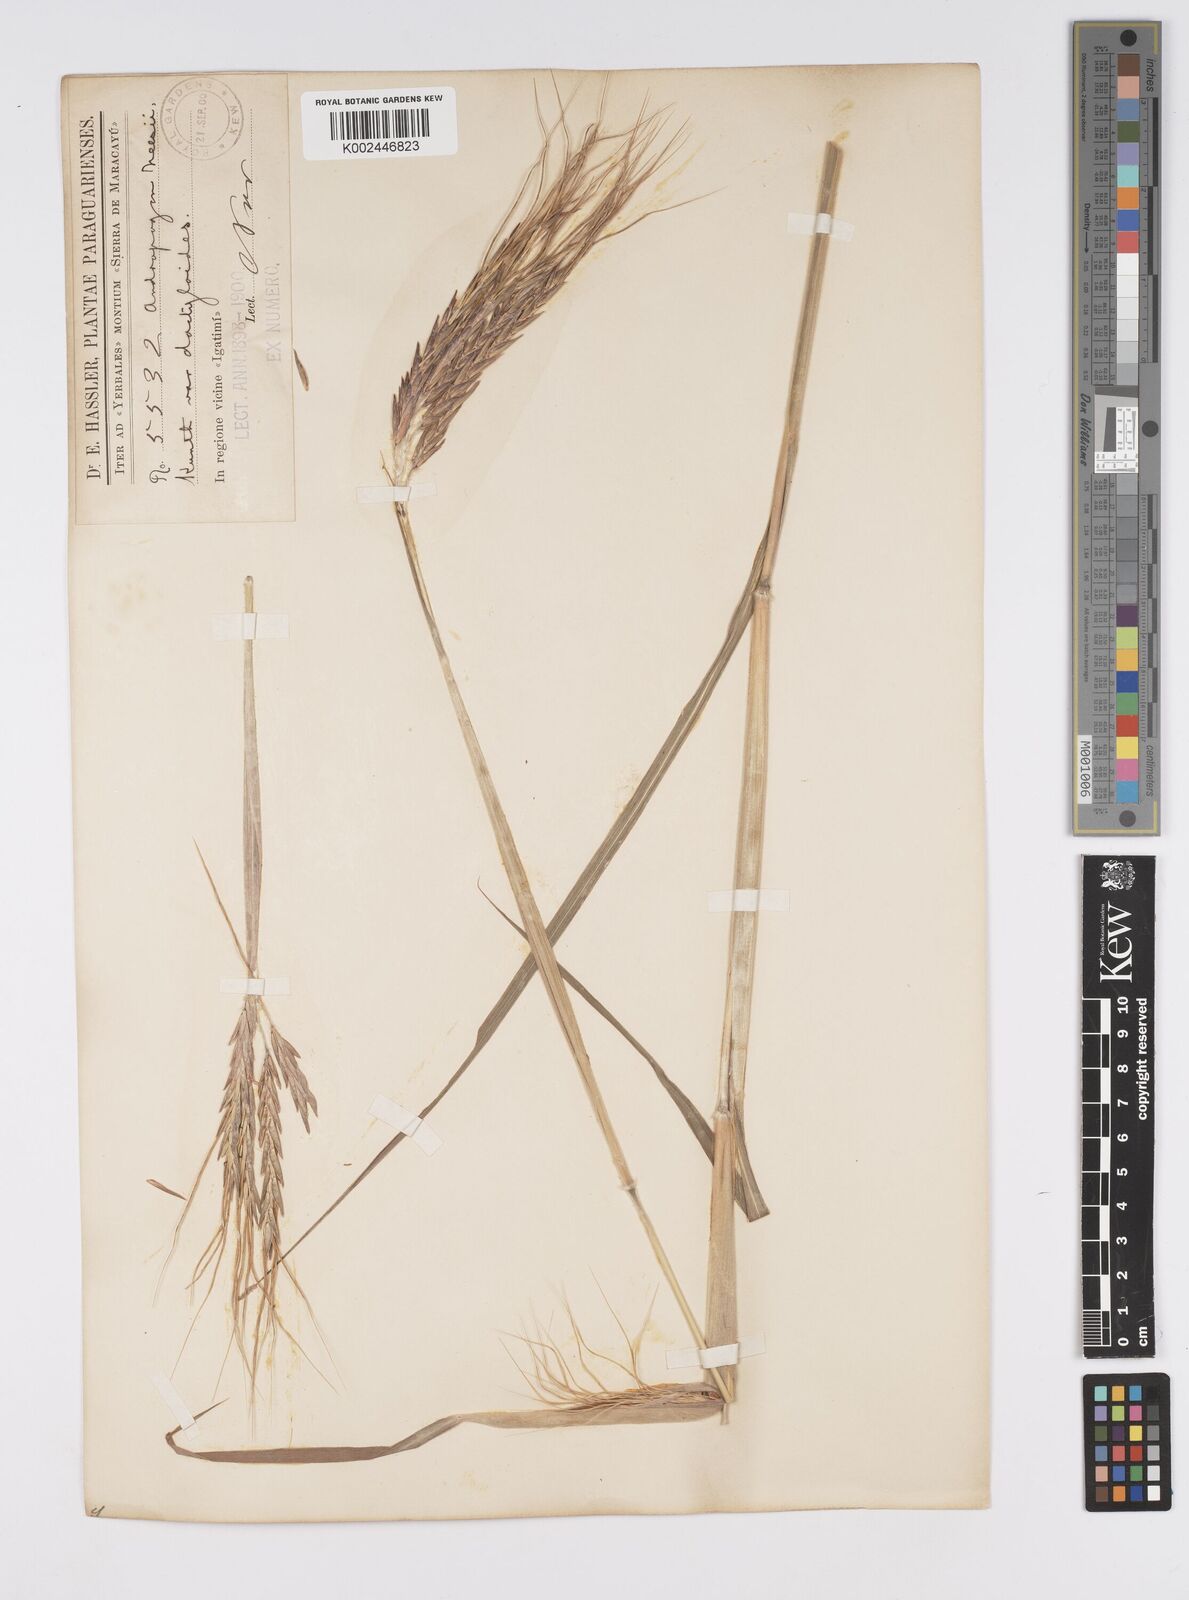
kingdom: Plantae
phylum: Tracheophyta
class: Liliopsida
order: Poales
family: Poaceae
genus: Agenium
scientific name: Agenium majus
